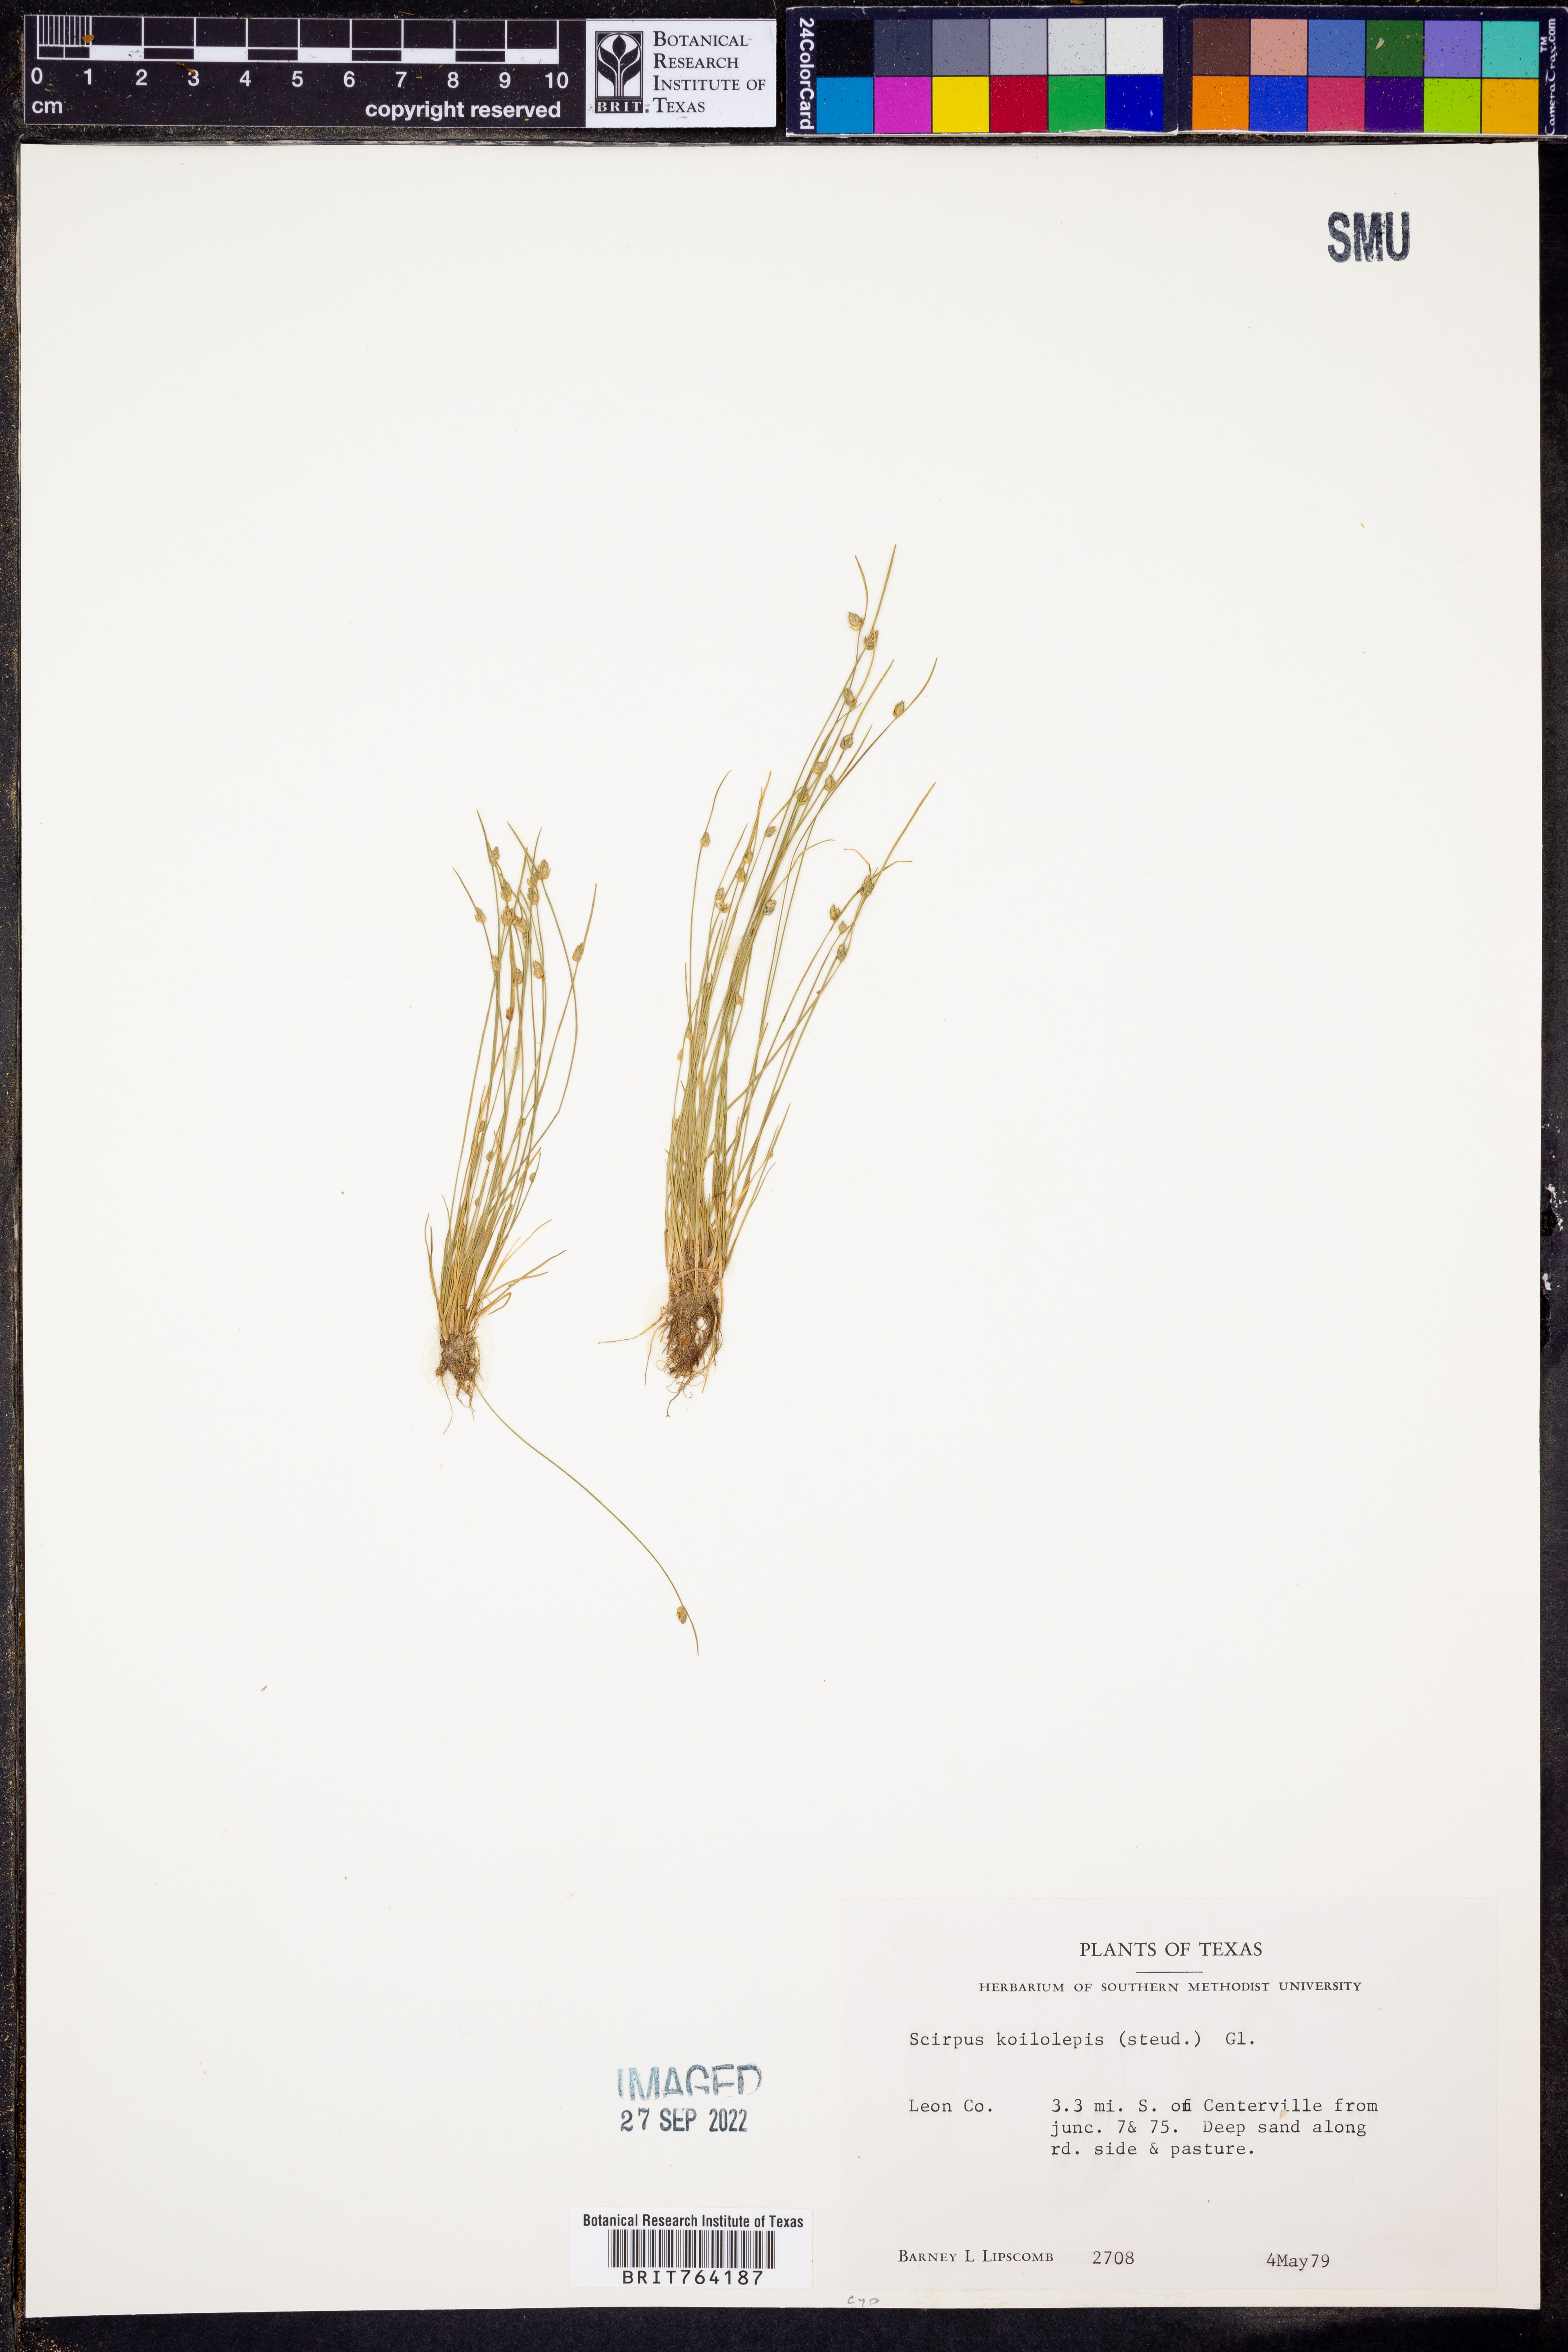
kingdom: Plantae
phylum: Tracheophyta
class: Liliopsida
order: Poales
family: Cyperaceae
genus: Isolepis
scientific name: Isolepis carinata
